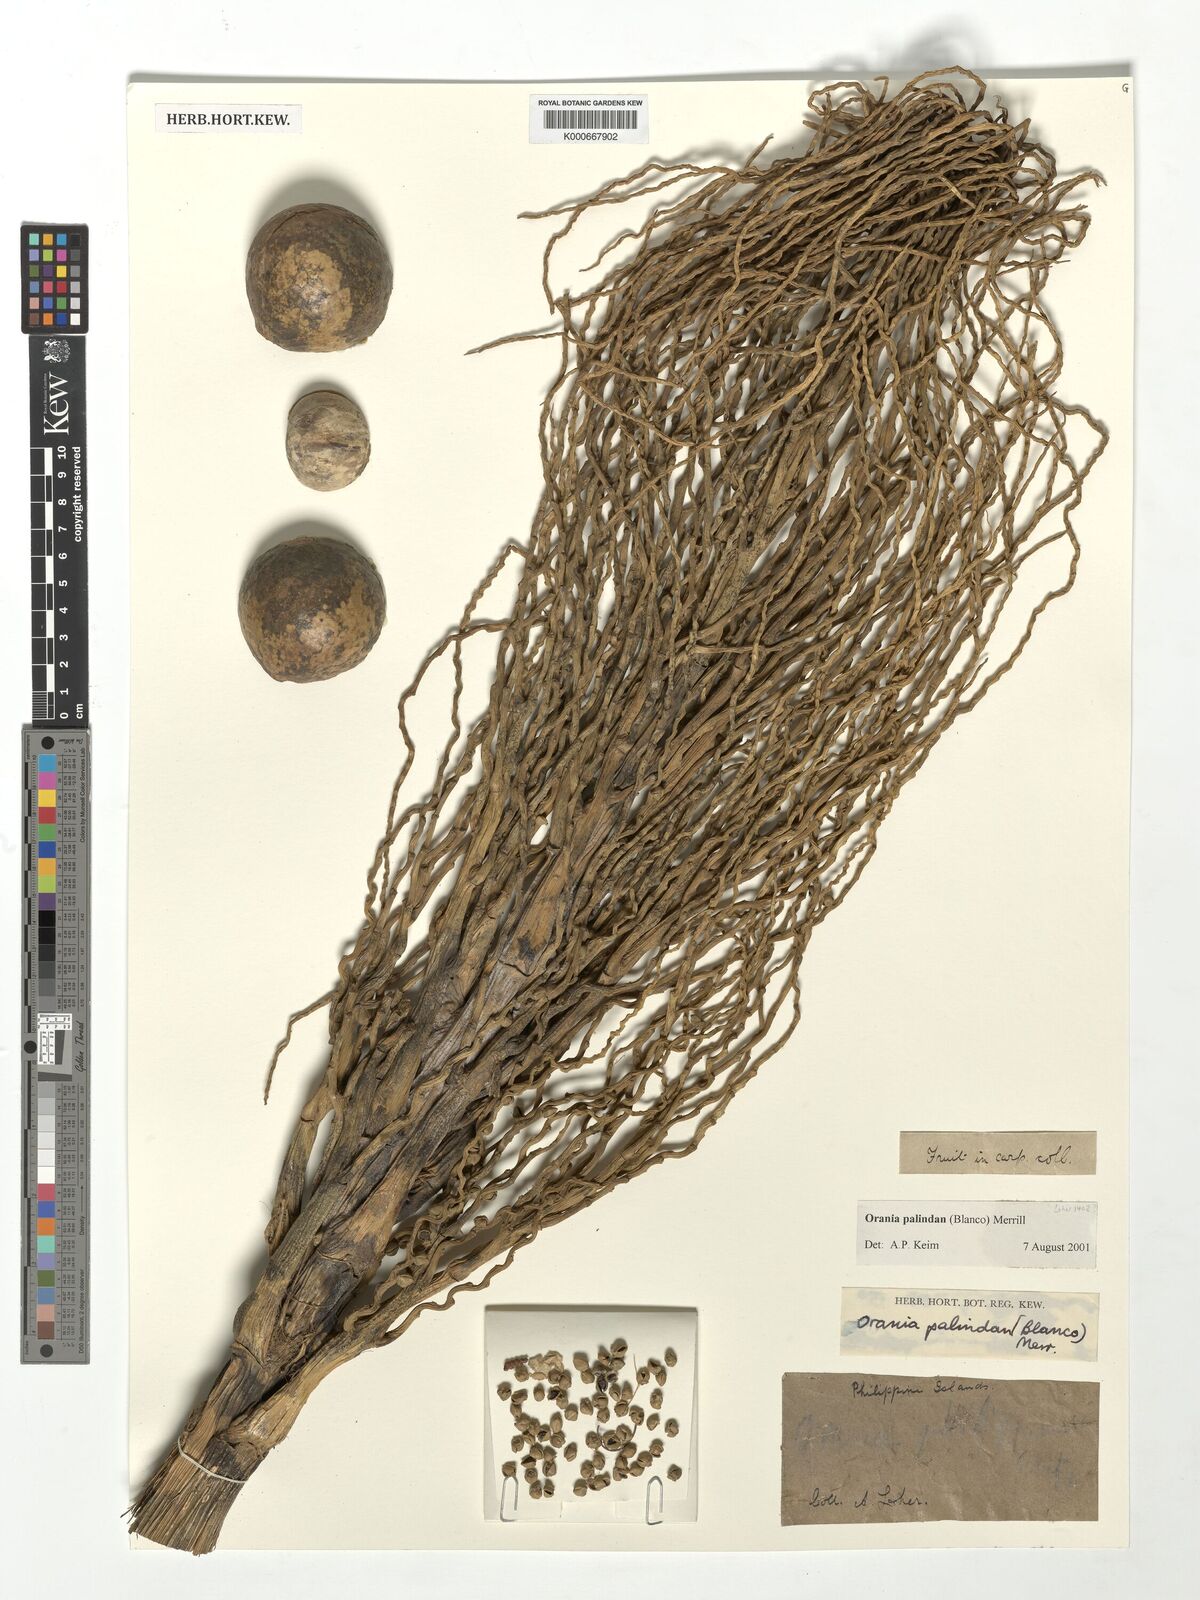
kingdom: Plantae
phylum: Tracheophyta
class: Liliopsida
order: Arecales
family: Arecaceae
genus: Orania
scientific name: Orania palindan
